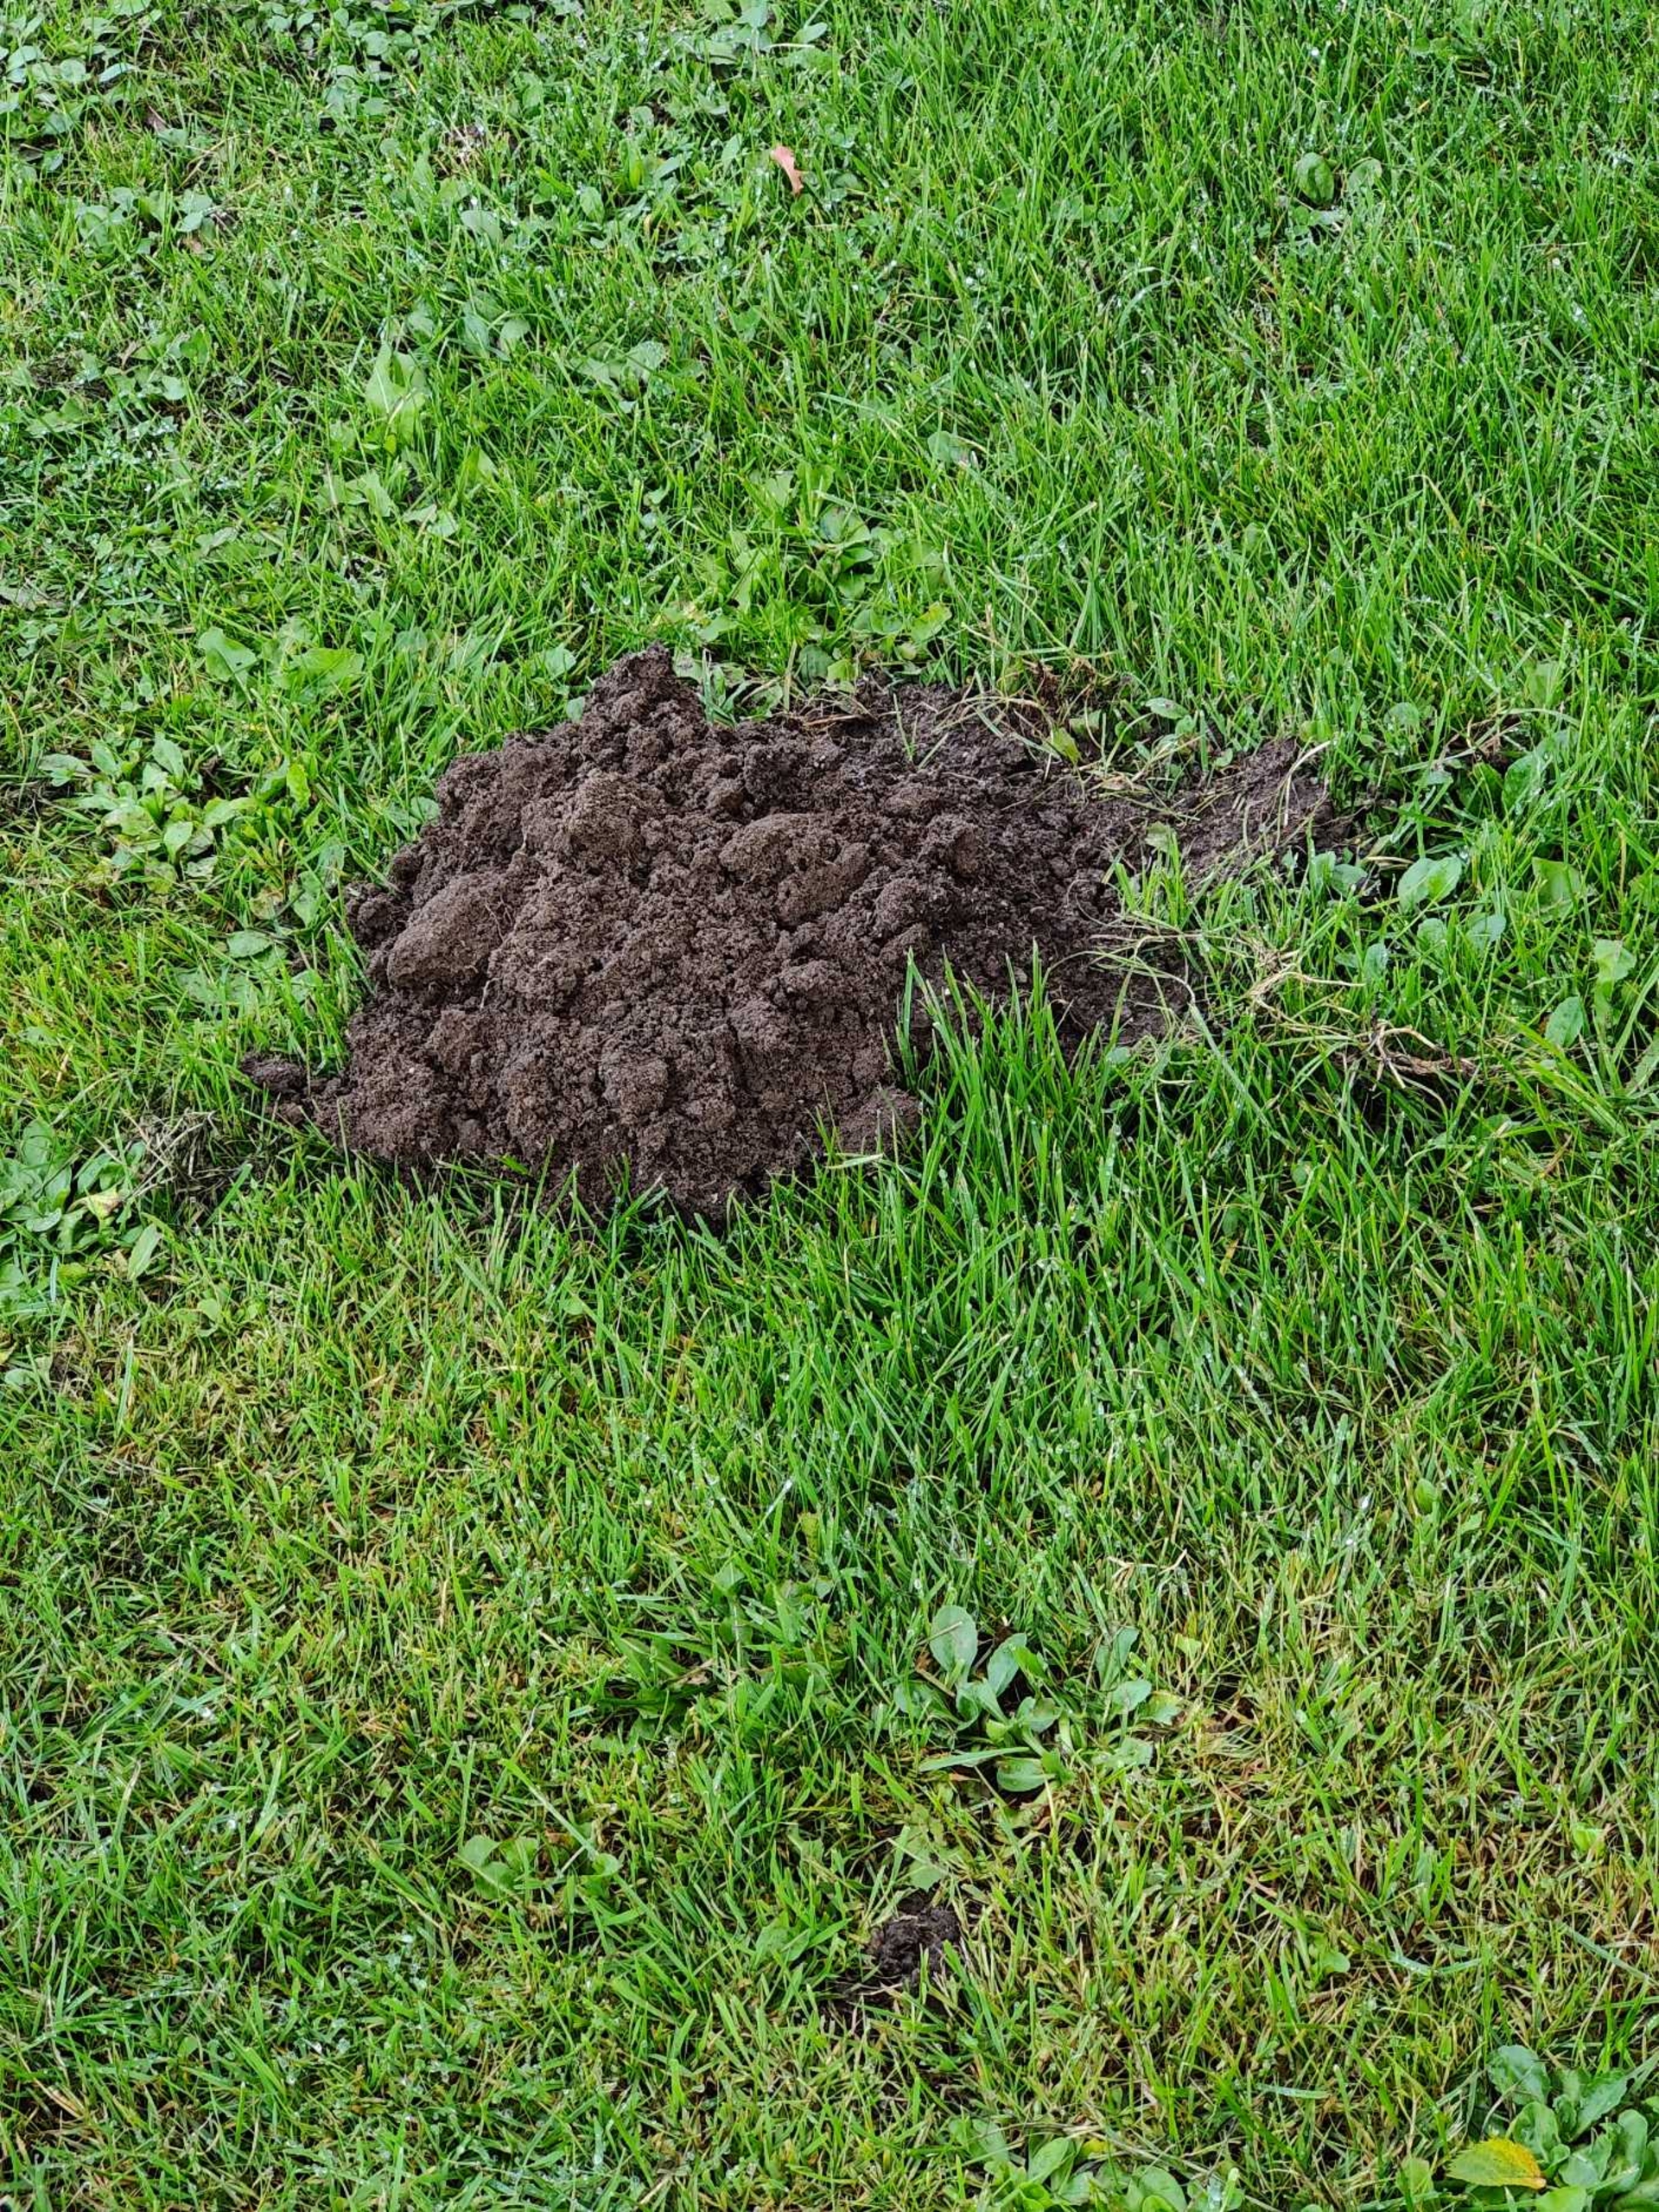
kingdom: Animalia
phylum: Chordata
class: Mammalia
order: Soricomorpha
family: Talpidae
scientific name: Talpidae
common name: Muldvarpe
